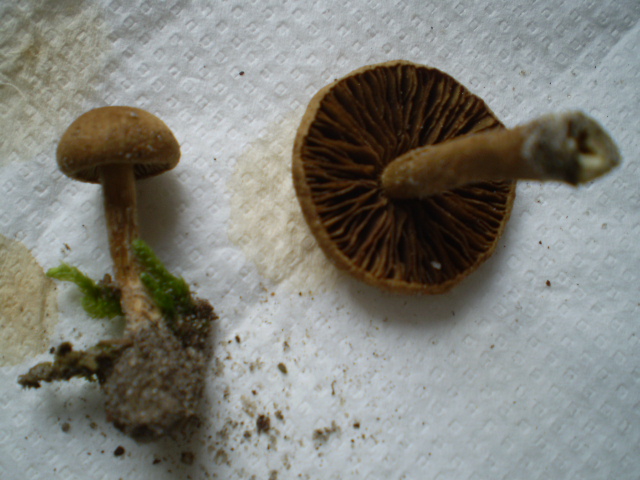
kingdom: Fungi
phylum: Basidiomycota
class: Agaricomycetes
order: Agaricales
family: Inocybaceae
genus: Inocybe
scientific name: Inocybe dulcamara
